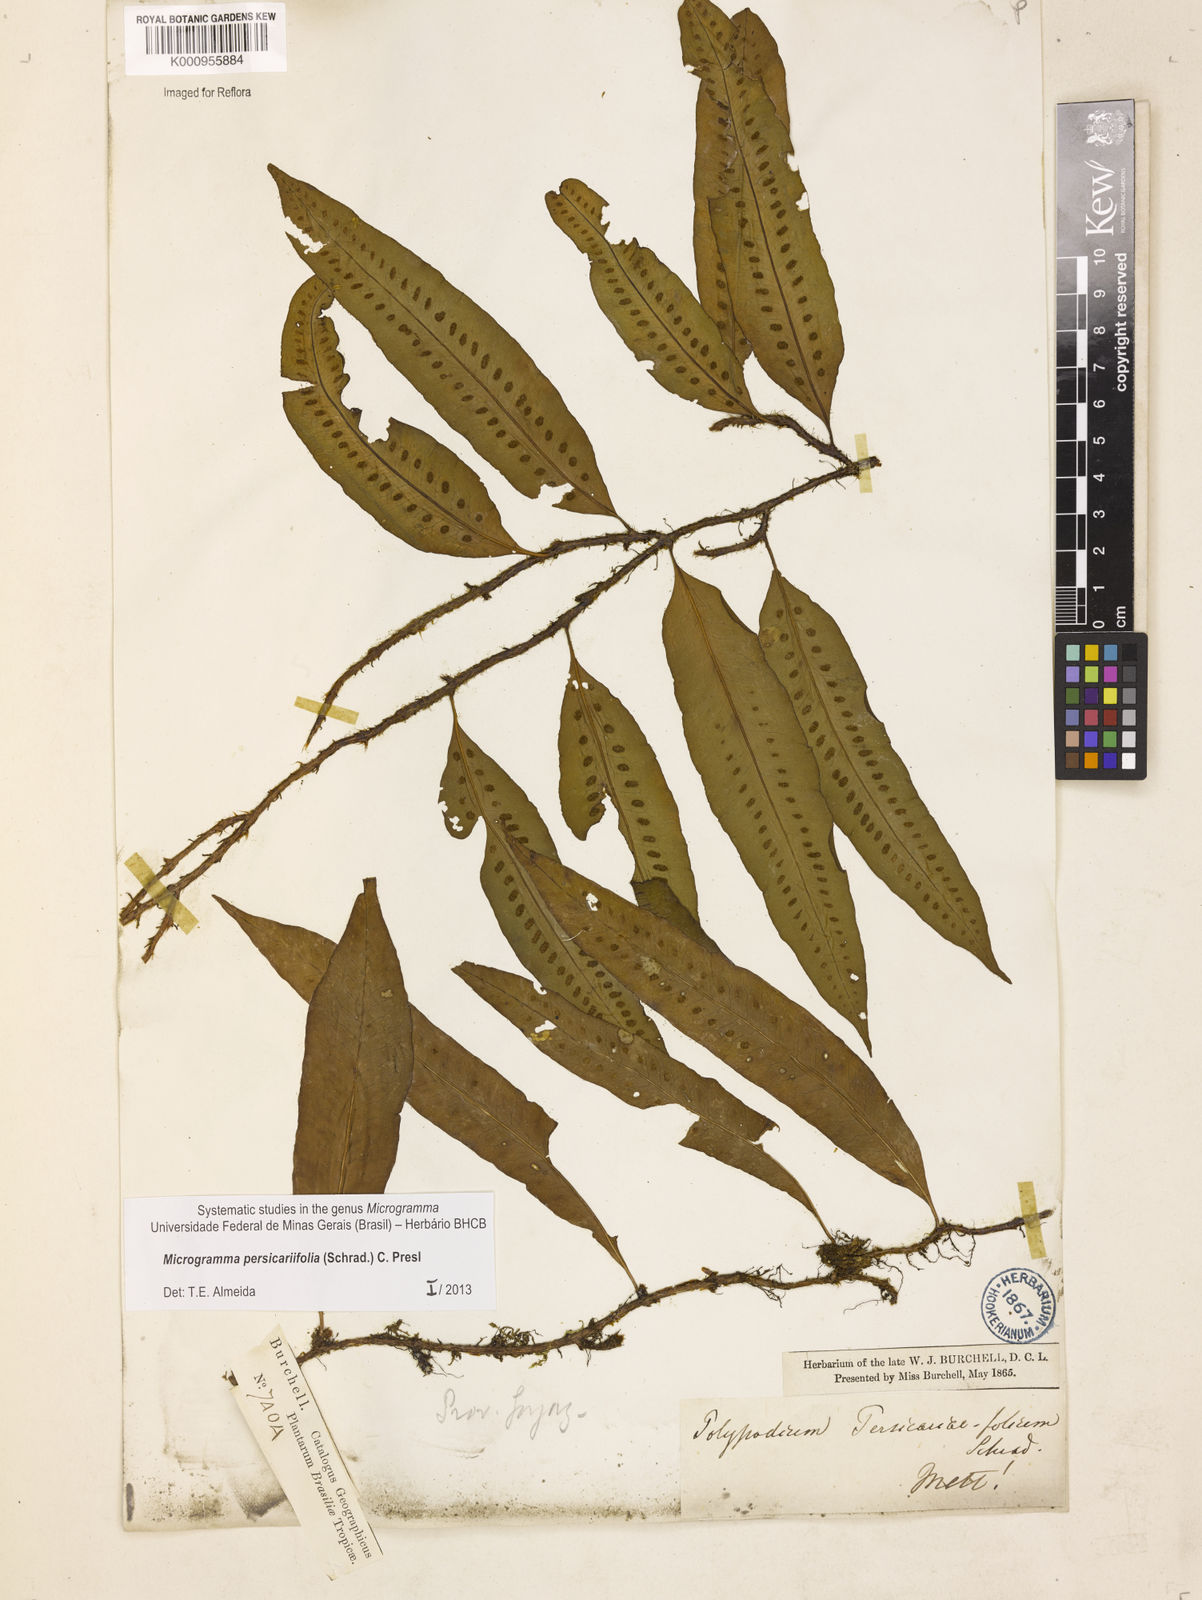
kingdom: Plantae
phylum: Tracheophyta
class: Polypodiopsida
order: Polypodiales
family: Polypodiaceae
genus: Microgramma
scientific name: Microgramma persicariifolia
